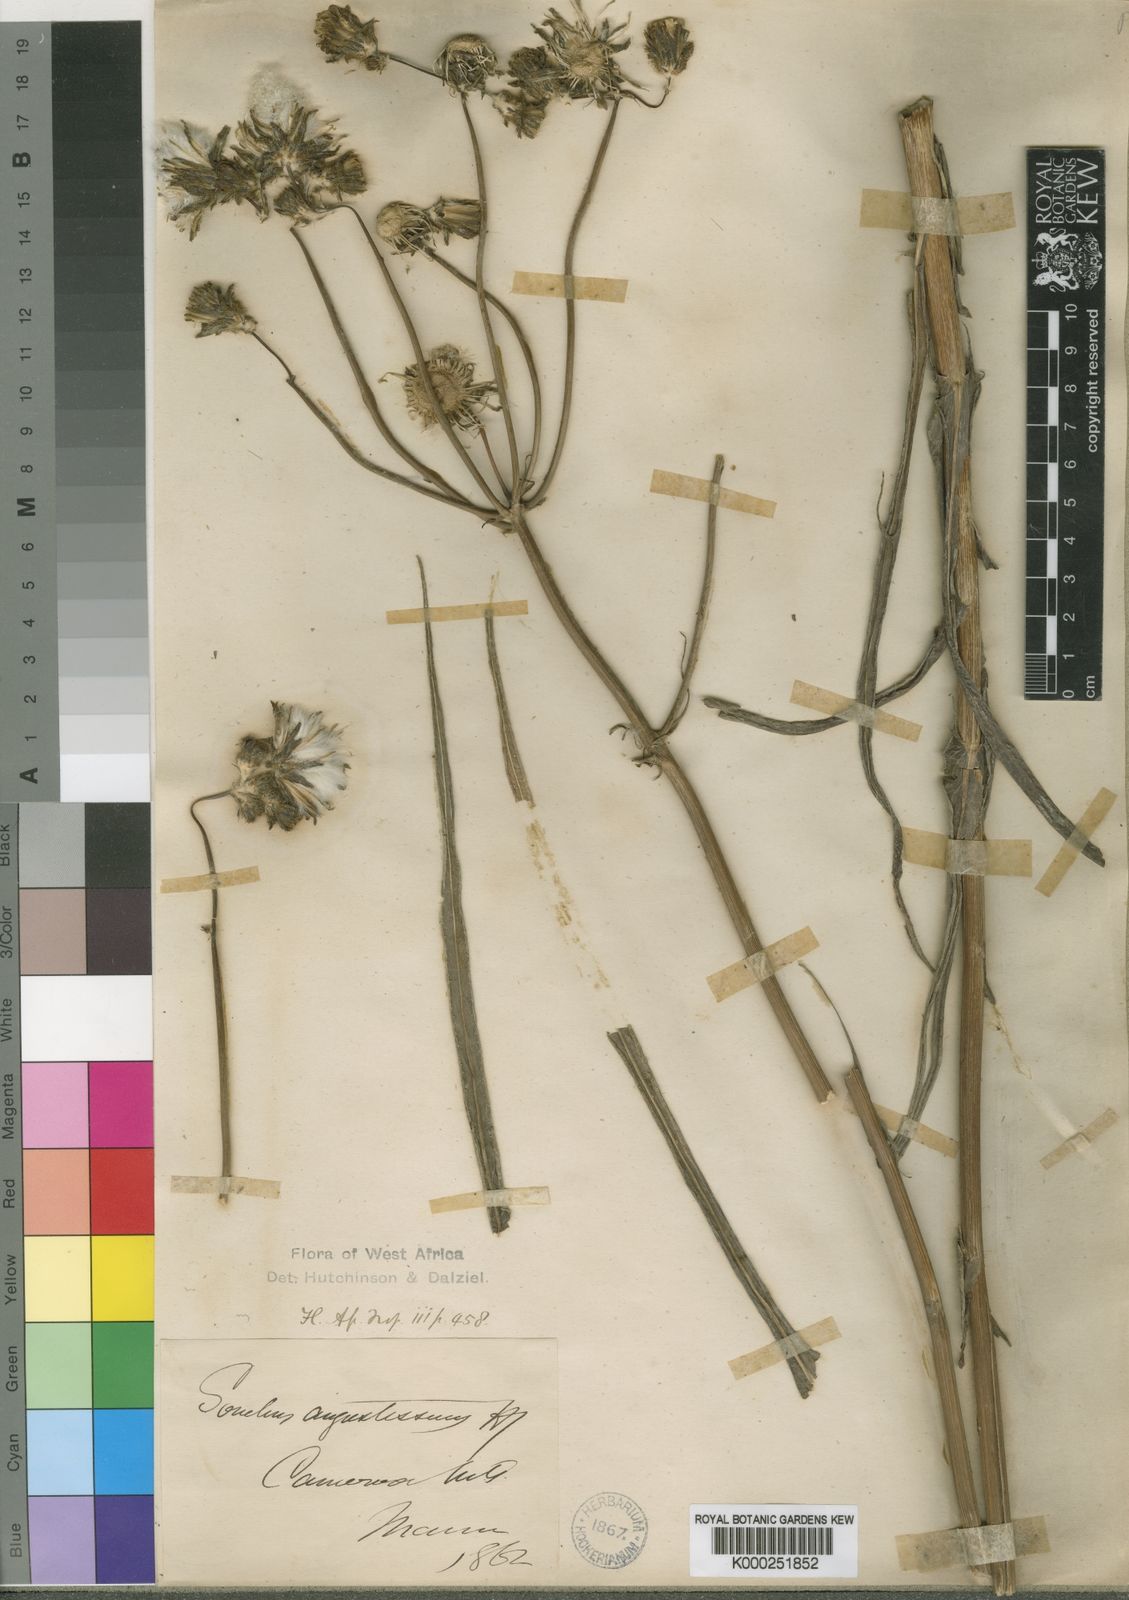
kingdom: Plantae
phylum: Tracheophyta
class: Magnoliopsida
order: Asterales
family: Asteraceae
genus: Sonchus
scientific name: Sonchus angustissimus
